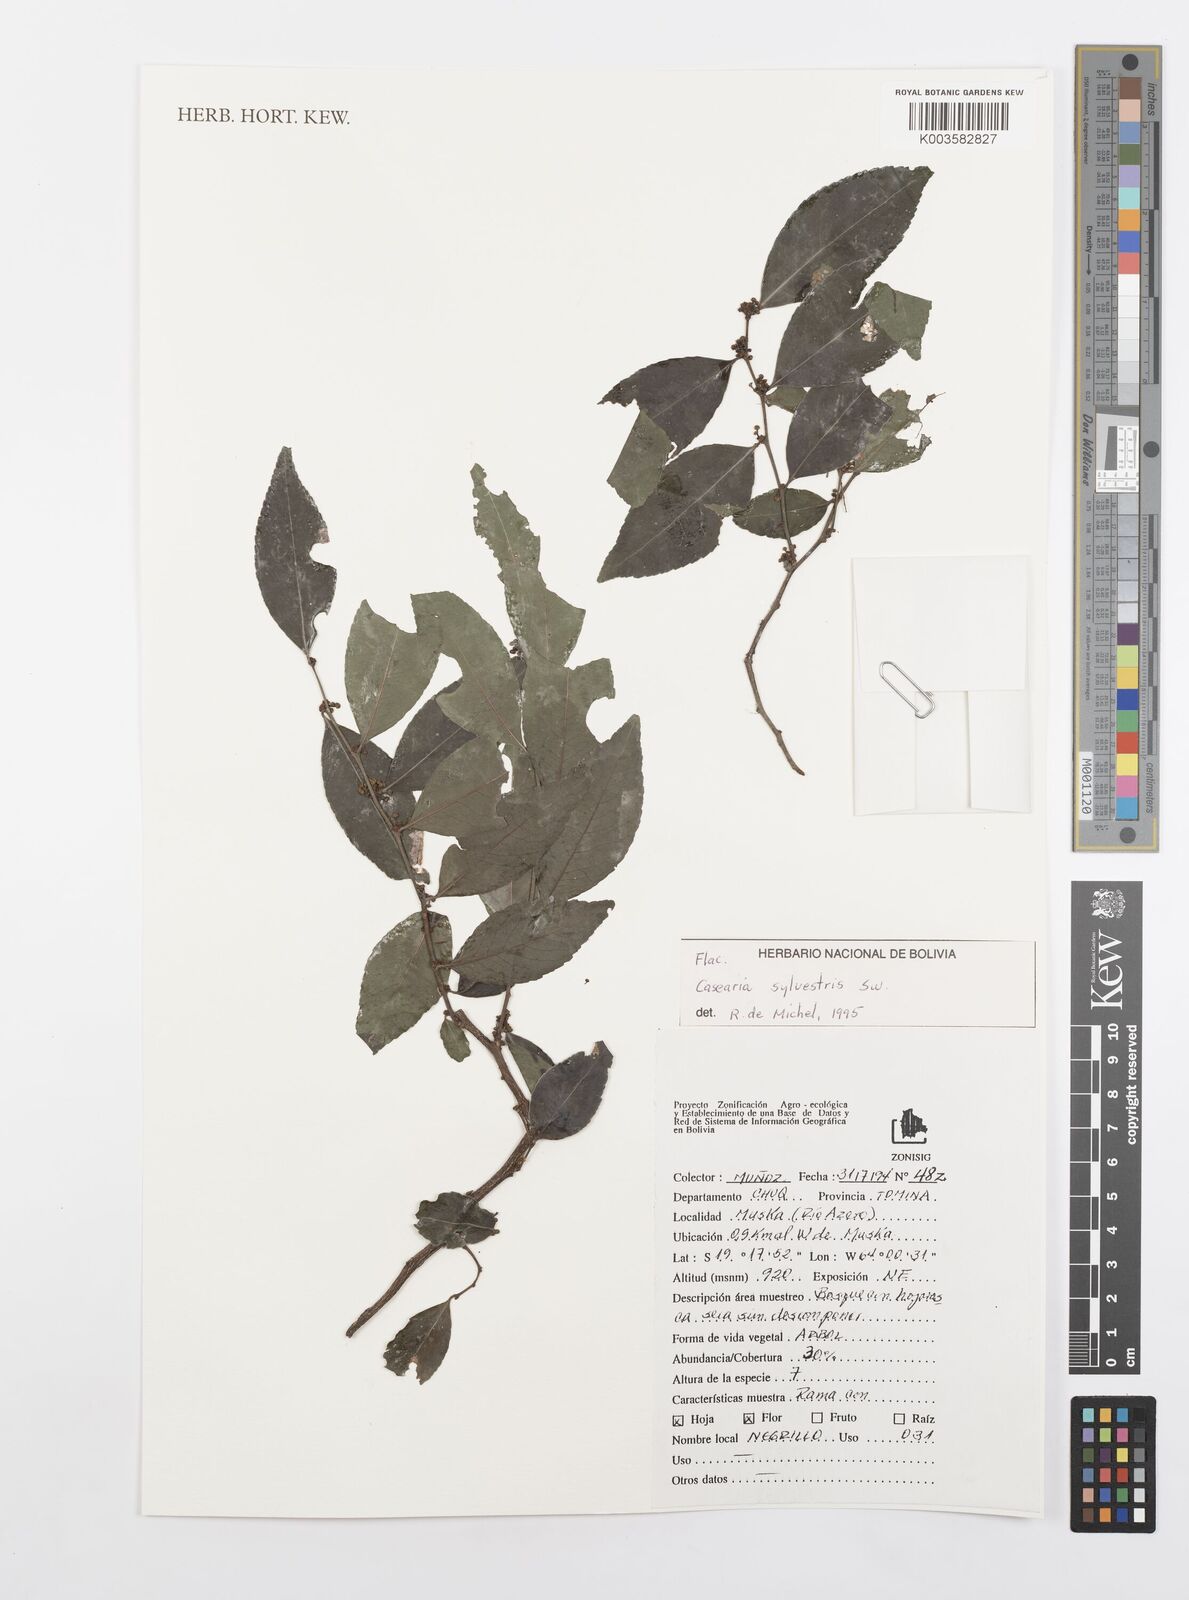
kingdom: Plantae
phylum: Tracheophyta
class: Magnoliopsida
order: Malpighiales
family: Salicaceae
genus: Casearia
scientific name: Casearia sylvestris
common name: Wild sage
